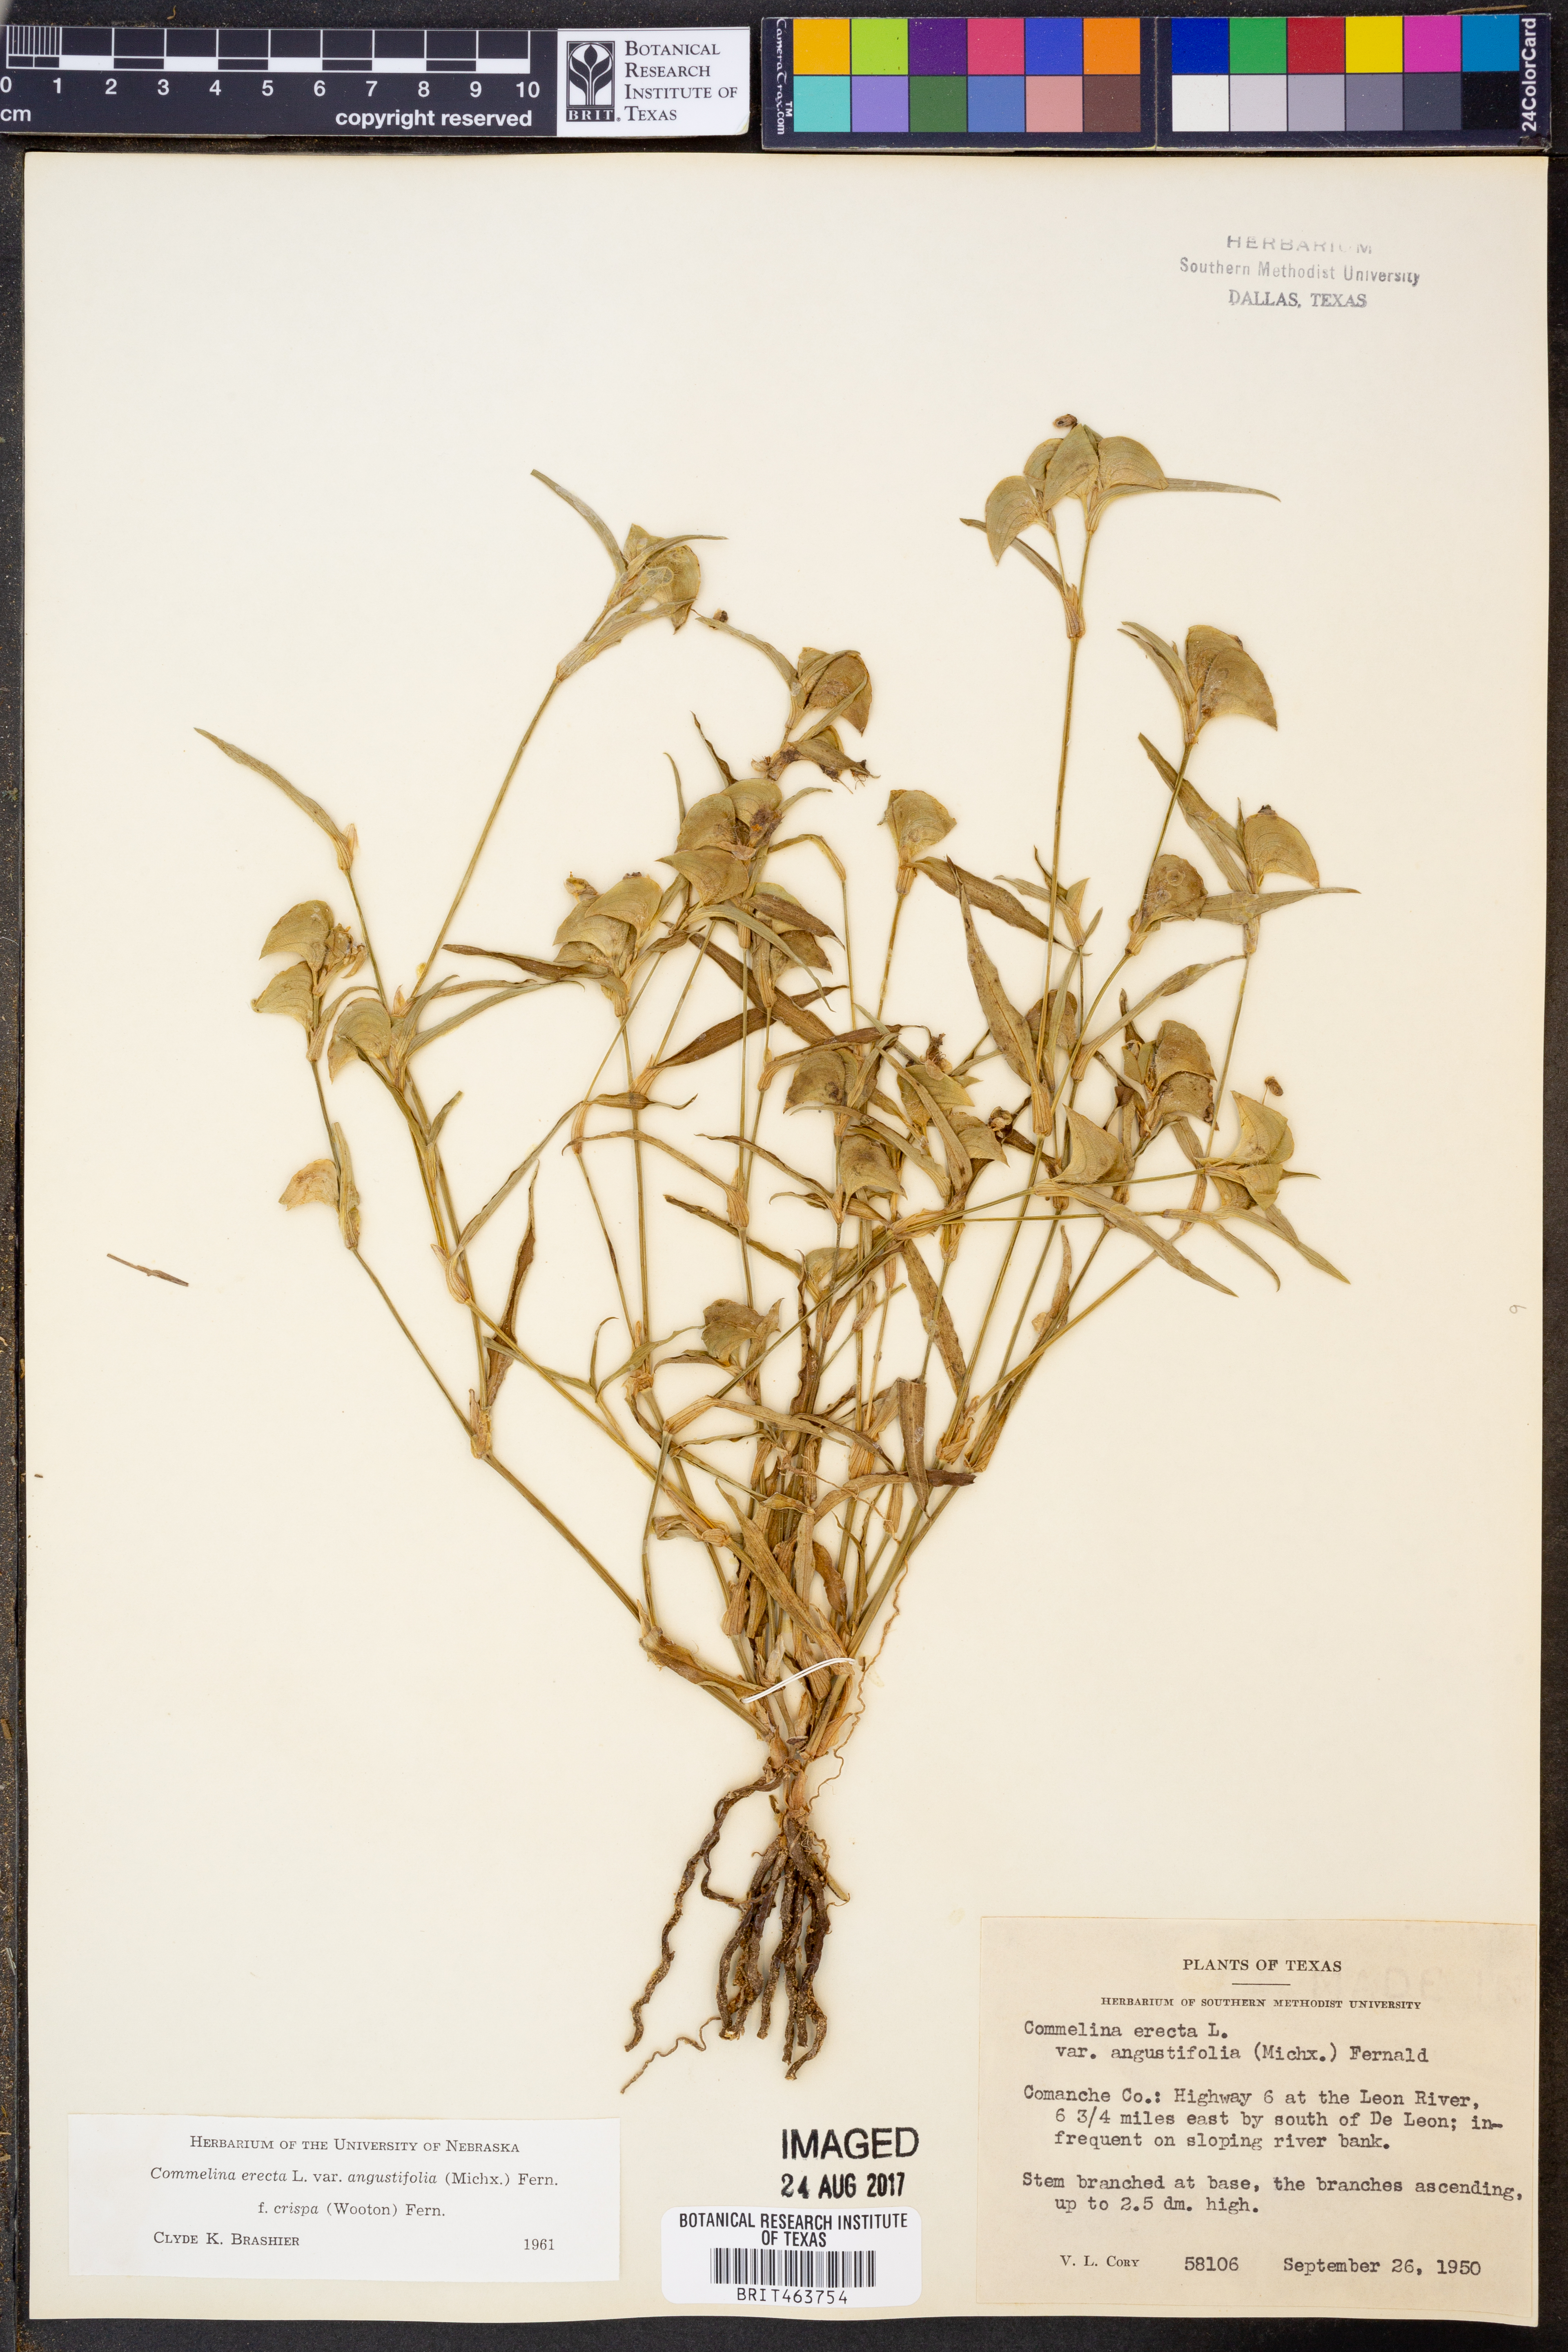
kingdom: Plantae
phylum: Tracheophyta
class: Liliopsida
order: Commelinales
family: Commelinaceae
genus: Commelina
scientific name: Commelina erecta
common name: Blousel blommetjie
